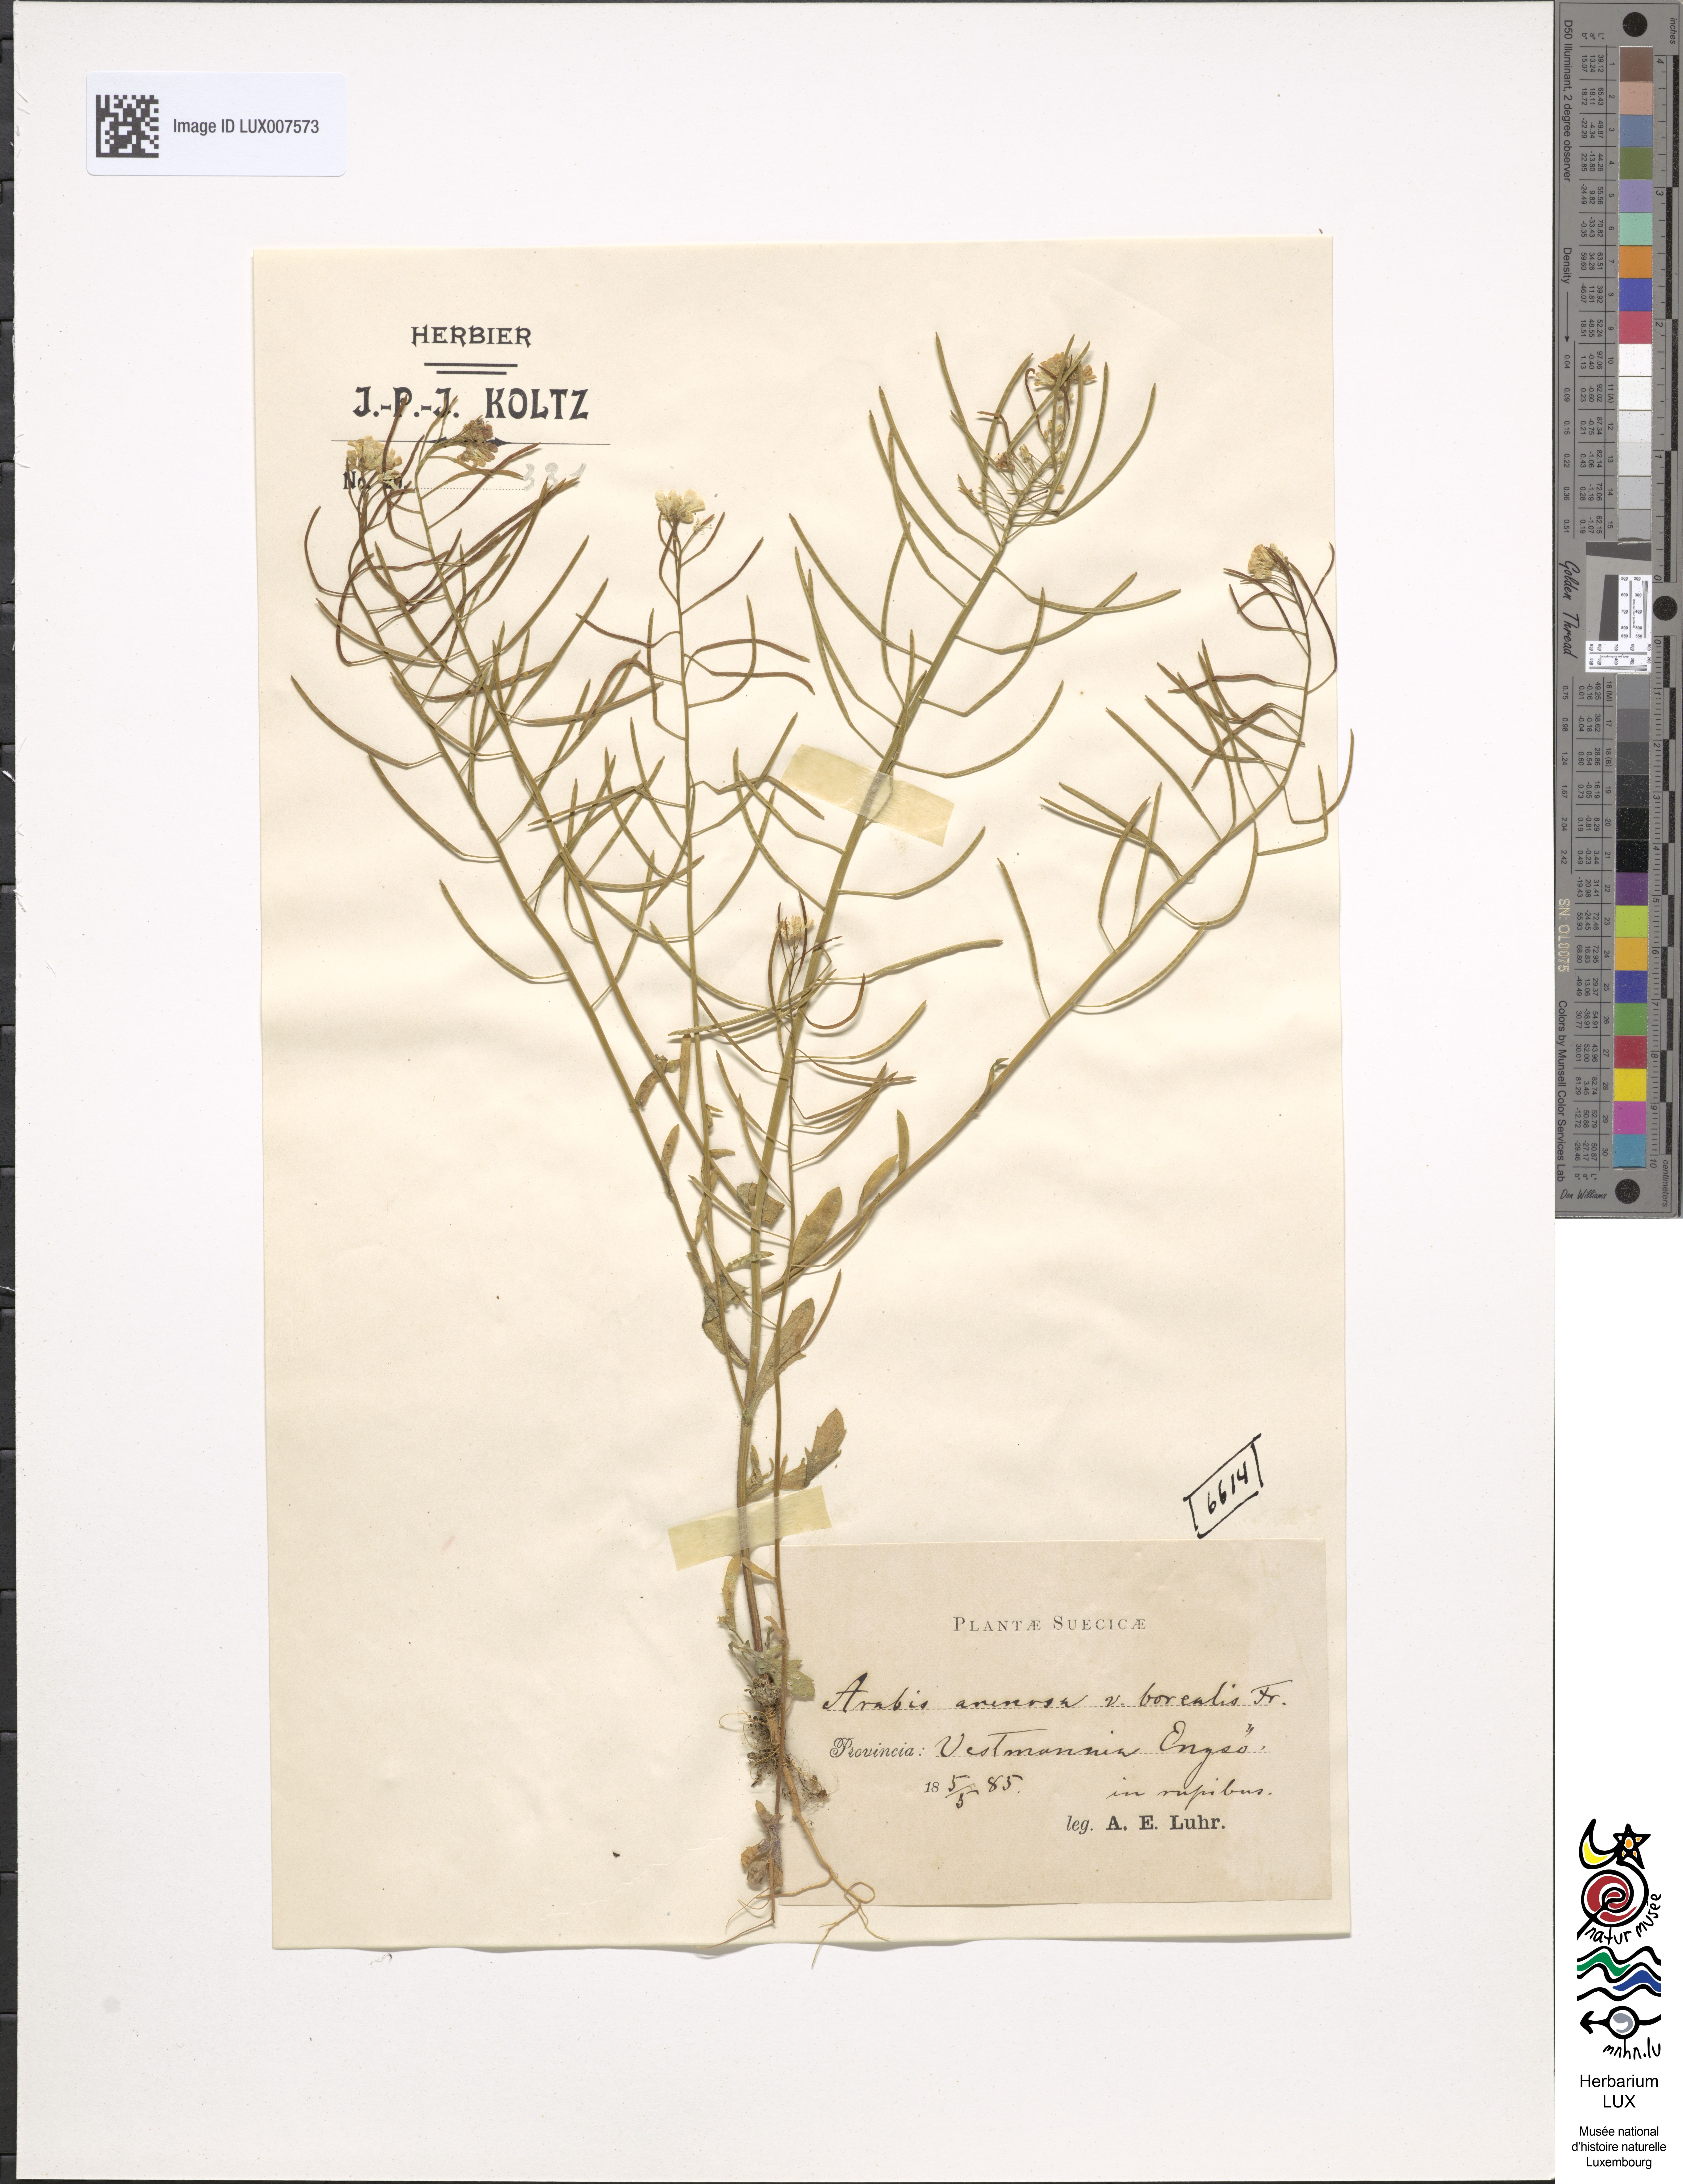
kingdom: Plantae
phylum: Tracheophyta
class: Magnoliopsida
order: Brassicales
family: Brassicaceae
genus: Arabidopsis
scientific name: Arabidopsis arenosa
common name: Sand rock-cress
